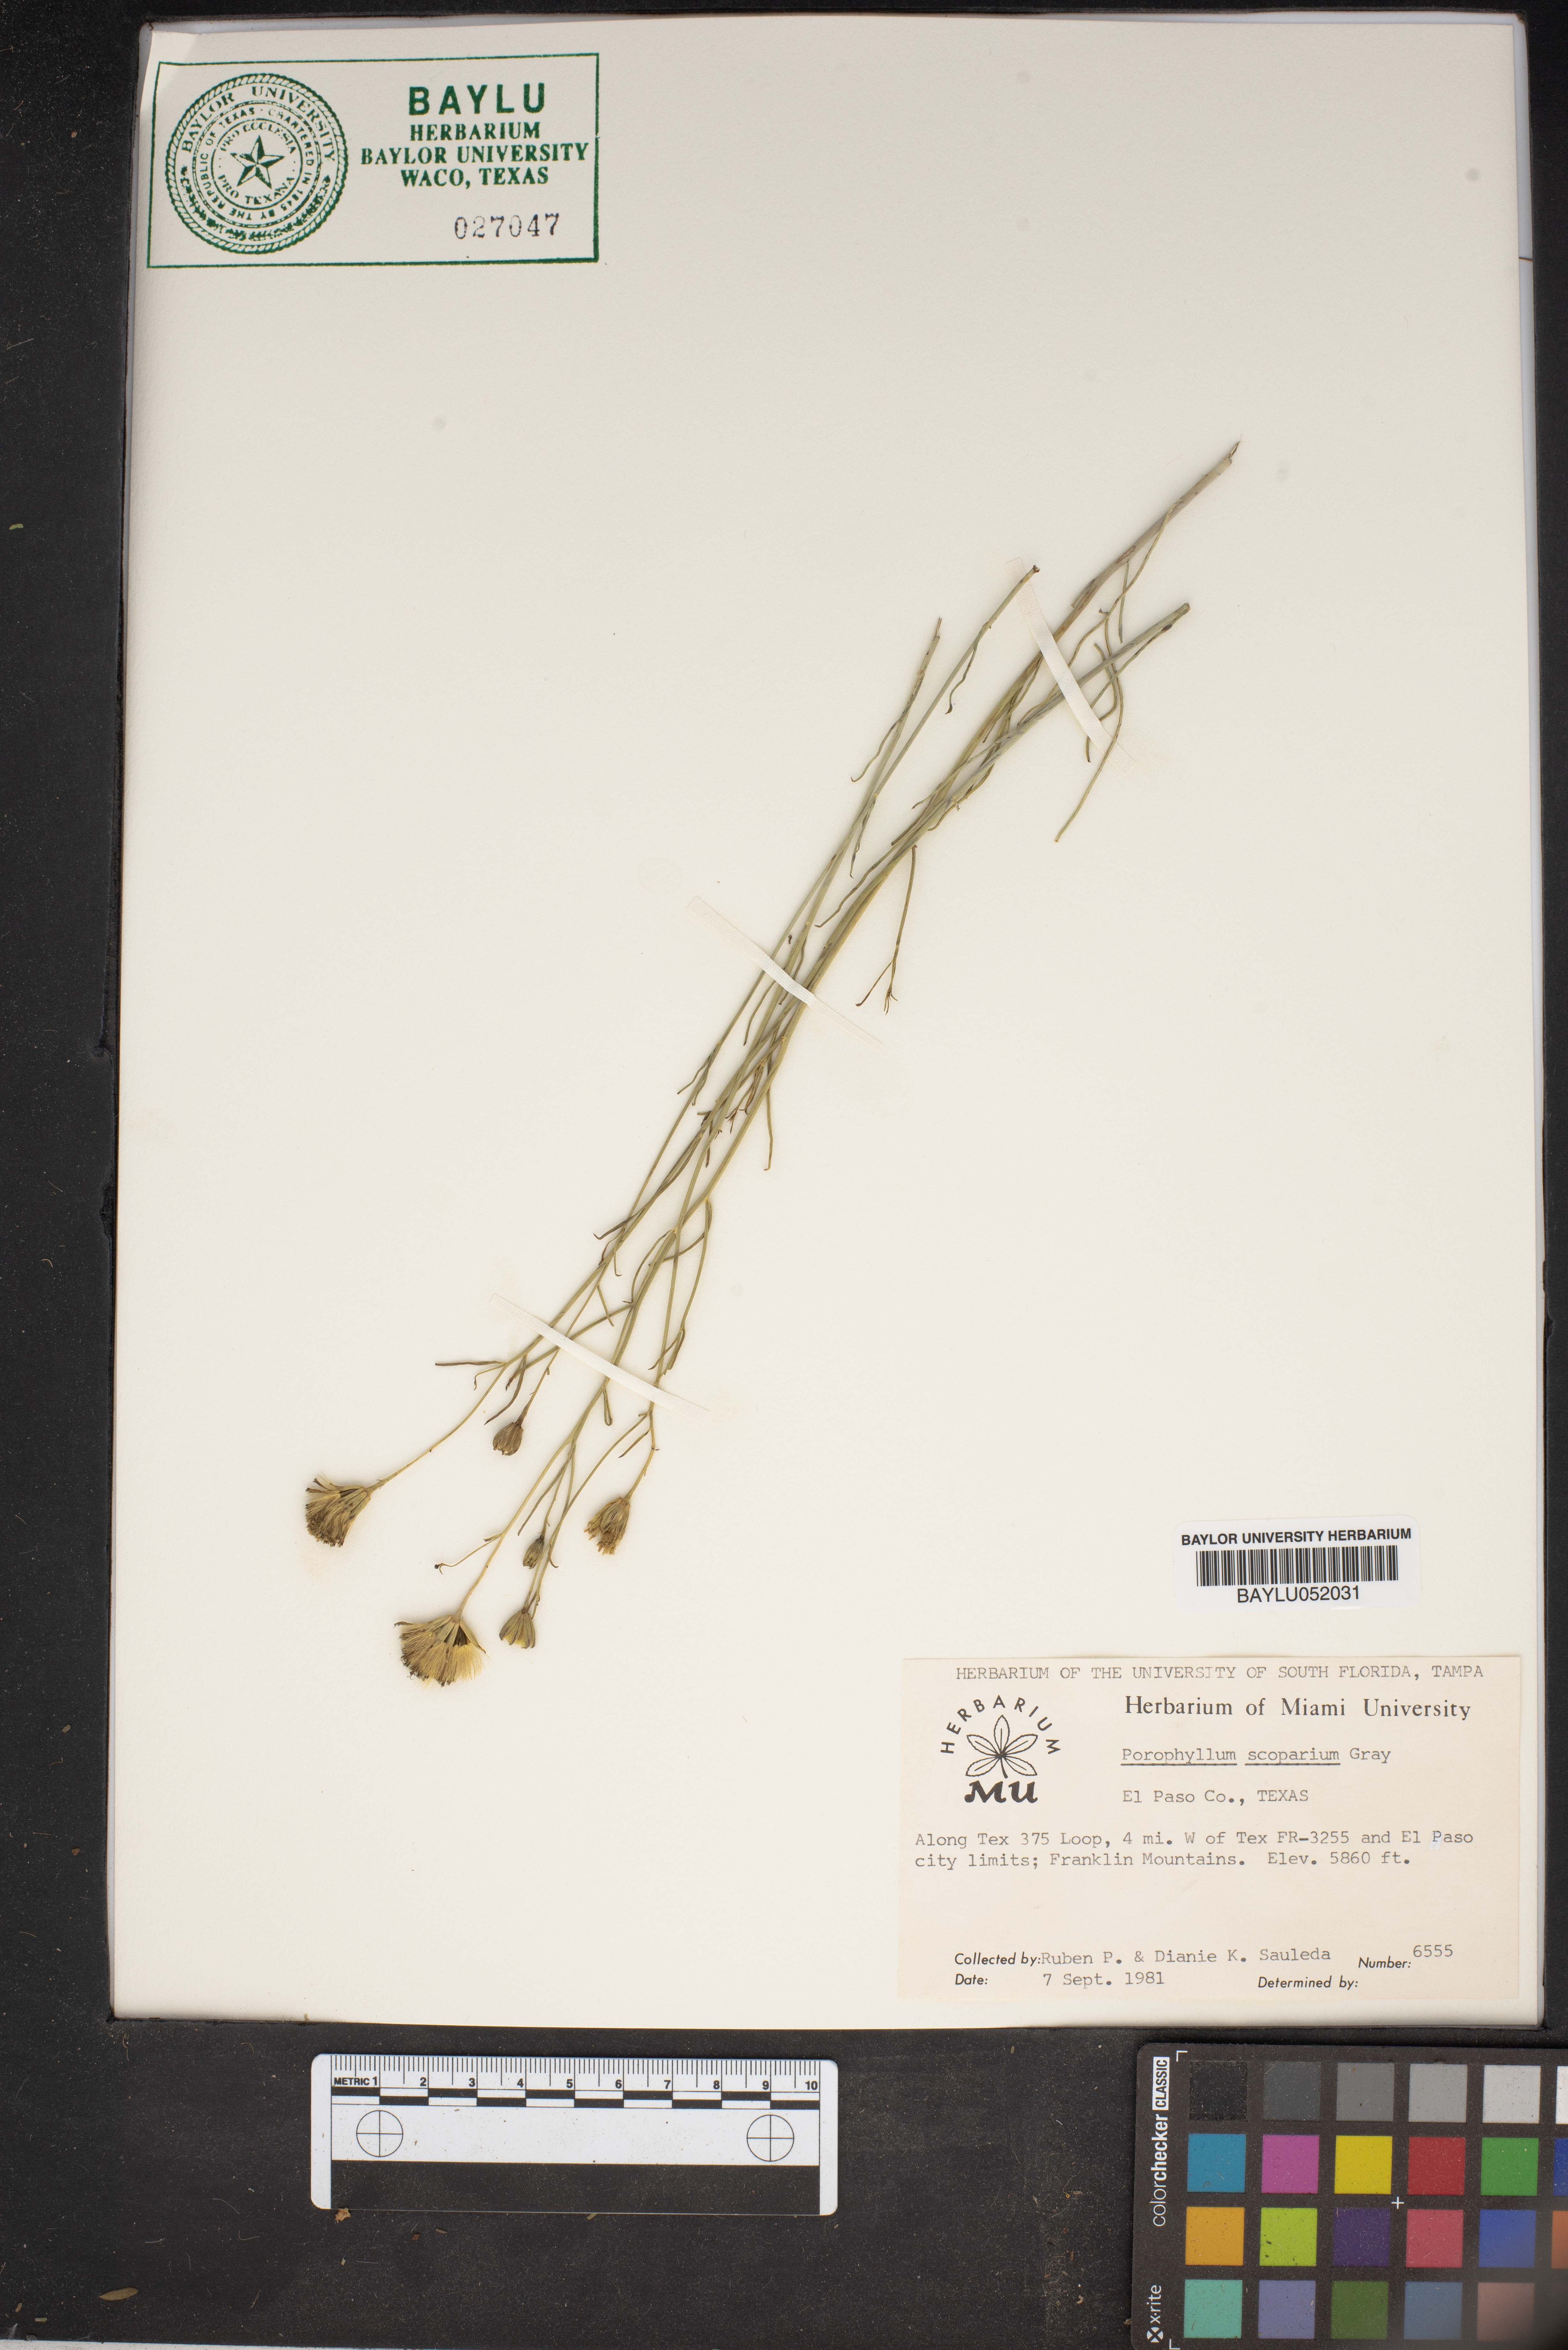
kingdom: Plantae
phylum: Tracheophyta
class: Magnoliopsida
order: Asterales
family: Asteraceae
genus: Porophyllum
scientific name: Porophyllum scoparium
